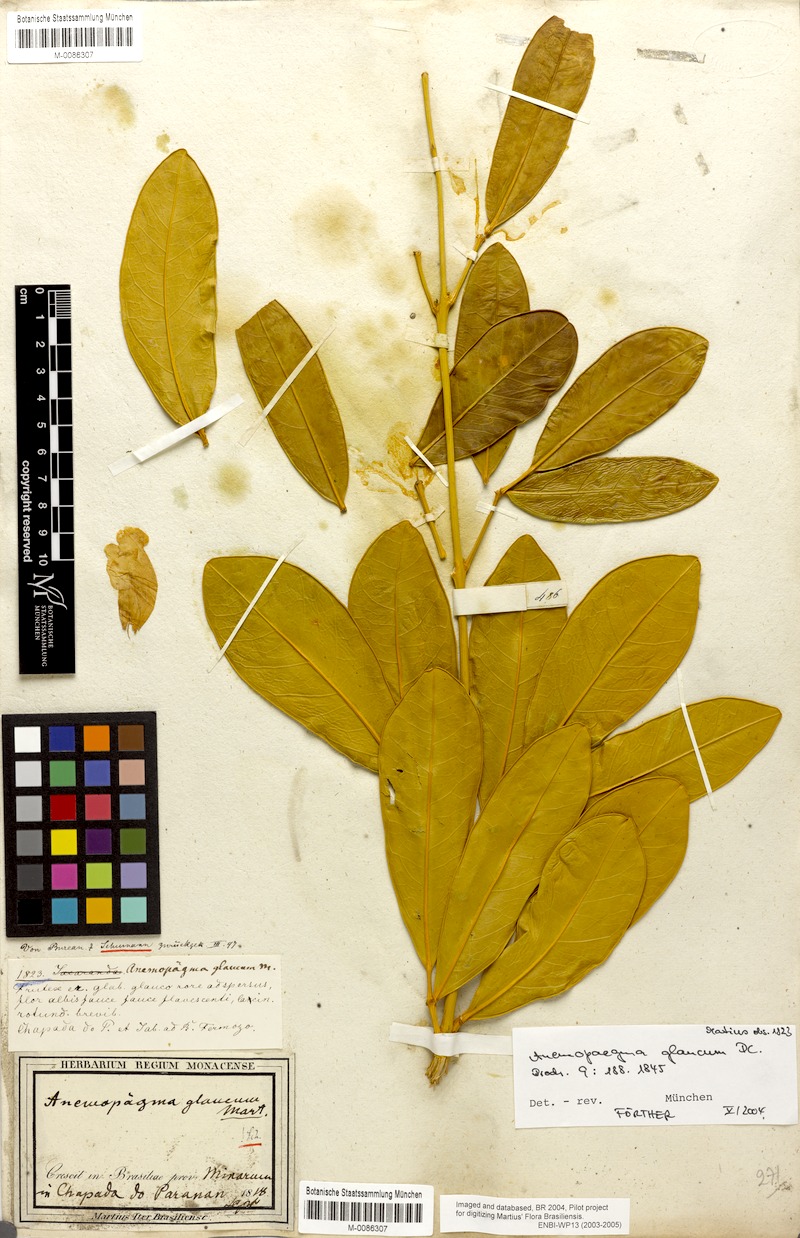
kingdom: Plantae
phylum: Tracheophyta
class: Magnoliopsida
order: Lamiales
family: Bignoniaceae
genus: Anemopaegma
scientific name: Anemopaegma glaucum
